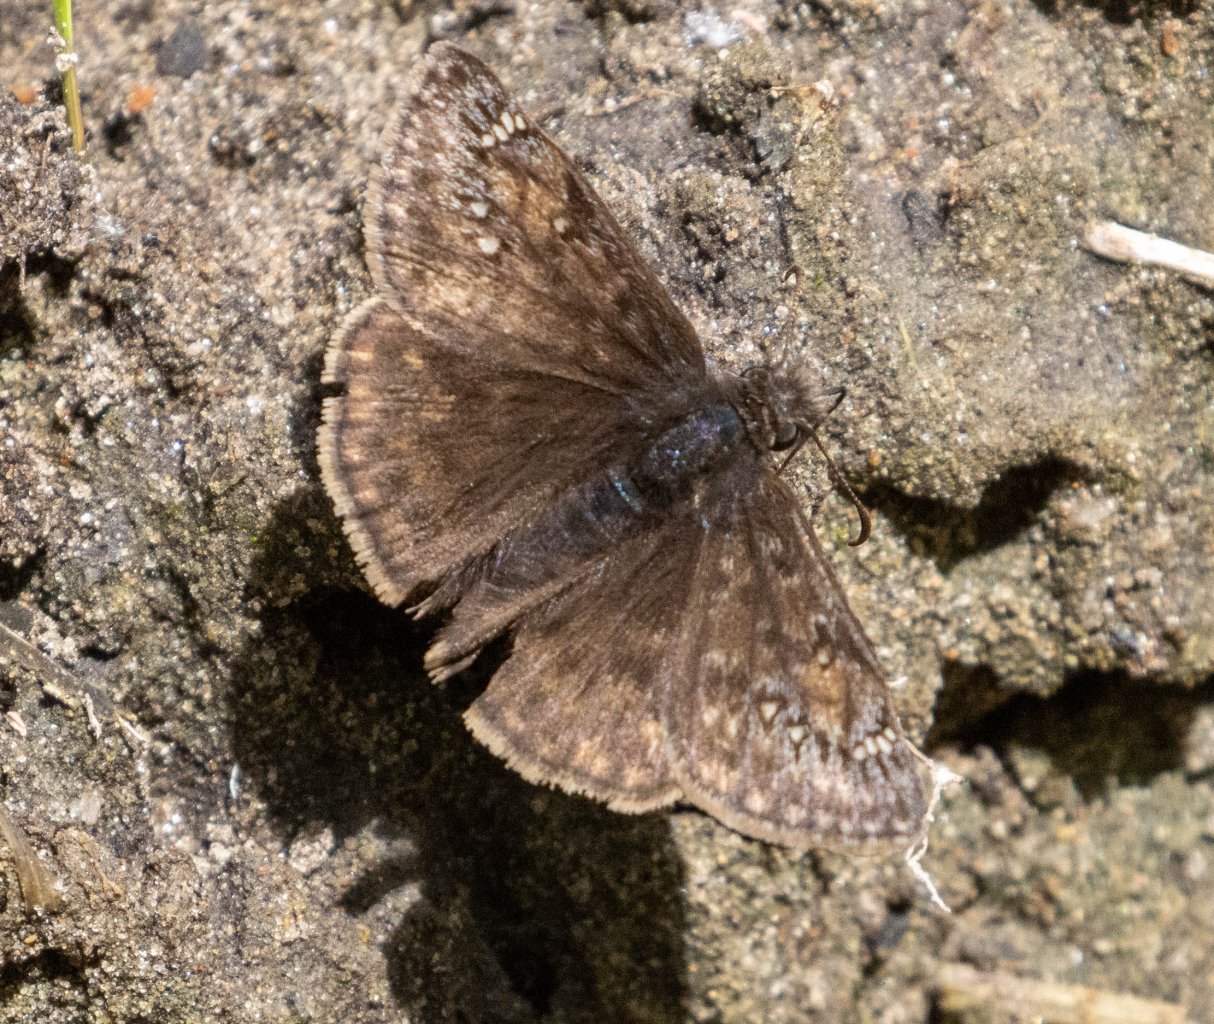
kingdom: Animalia
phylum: Arthropoda
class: Insecta
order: Lepidoptera
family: Hesperiidae
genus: Gesta
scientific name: Gesta
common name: Juvenal's Duskywing
